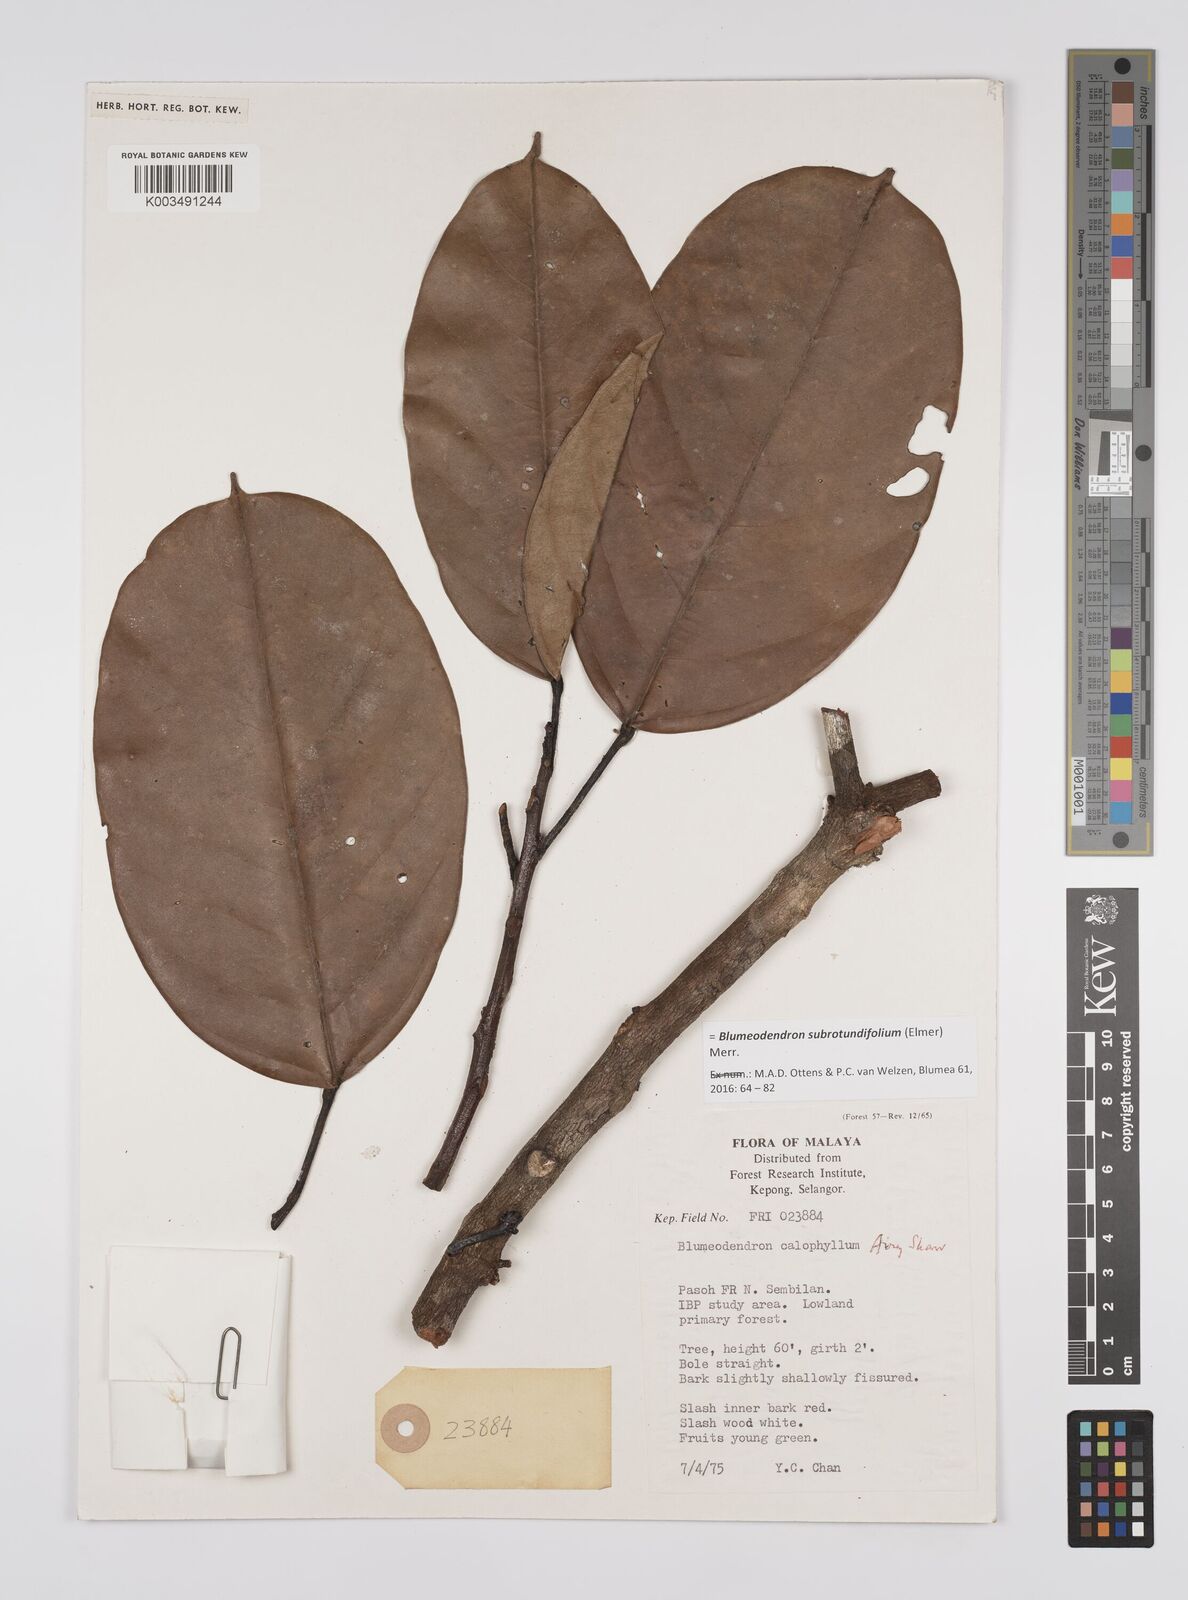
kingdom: Plantae
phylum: Tracheophyta
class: Magnoliopsida
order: Malpighiales
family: Euphorbiaceae
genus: Blumeodendron
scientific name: Blumeodendron subrotundifolium
